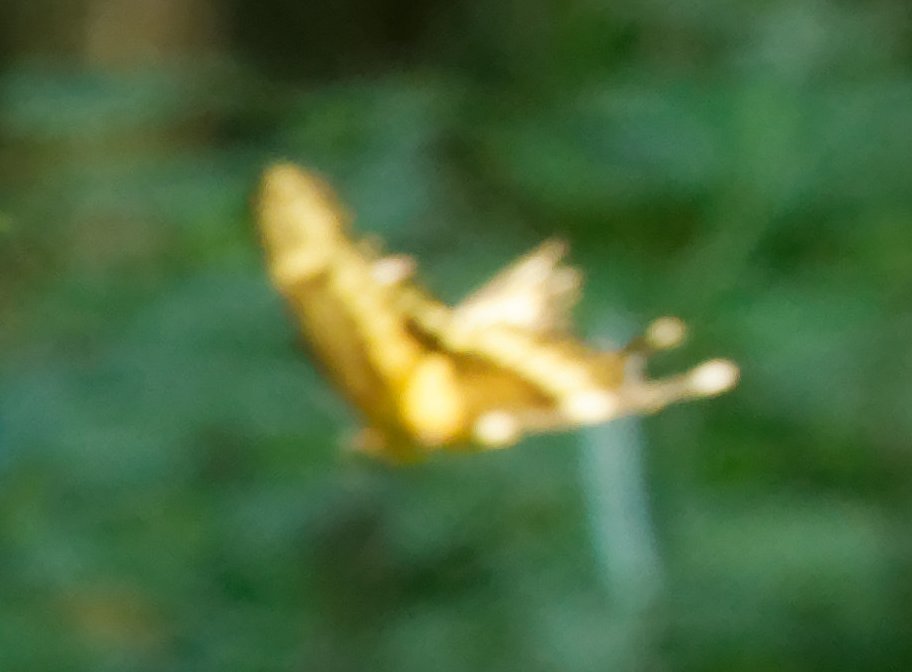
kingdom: Animalia
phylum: Arthropoda
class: Insecta
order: Lepidoptera
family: Papilionidae
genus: Papilio
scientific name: Papilio cresphontes
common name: Eastern Giant Swallowtail
